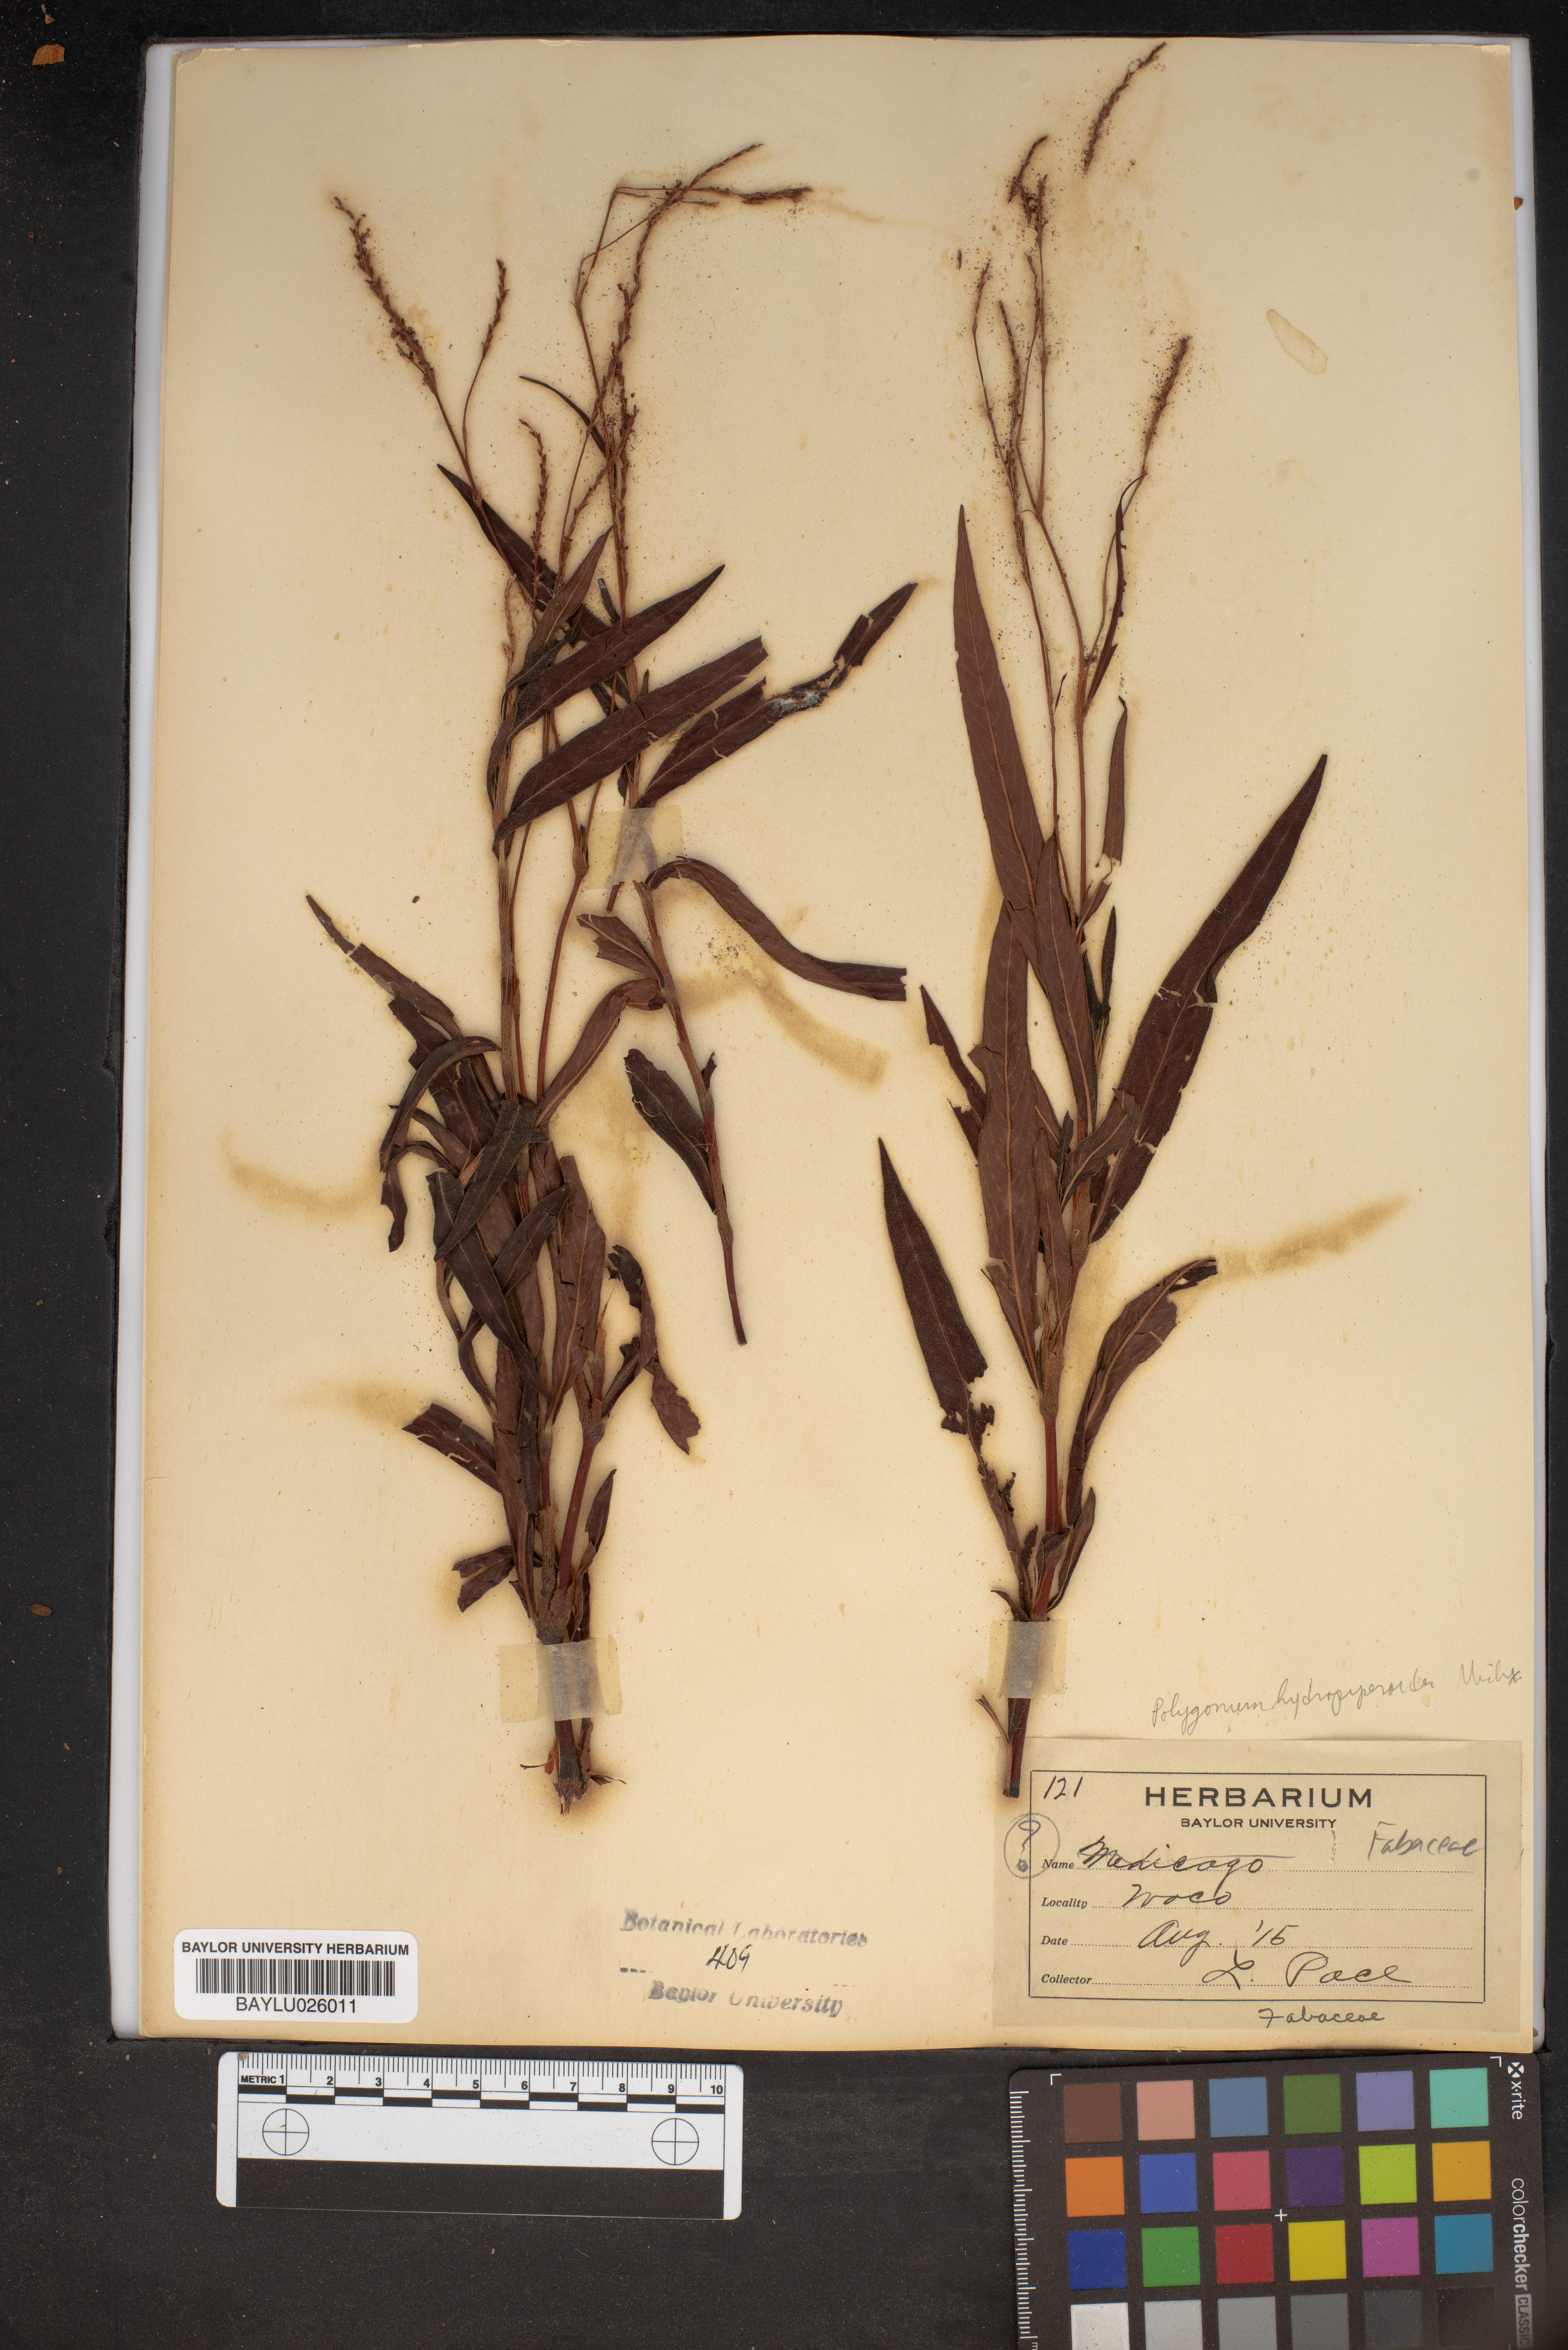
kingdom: Plantae
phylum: Tracheophyta
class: Magnoliopsida
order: Caryophyllales
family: Polygonaceae
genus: Persicaria
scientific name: Persicaria hydropiperoides
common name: Swamp smartweed
